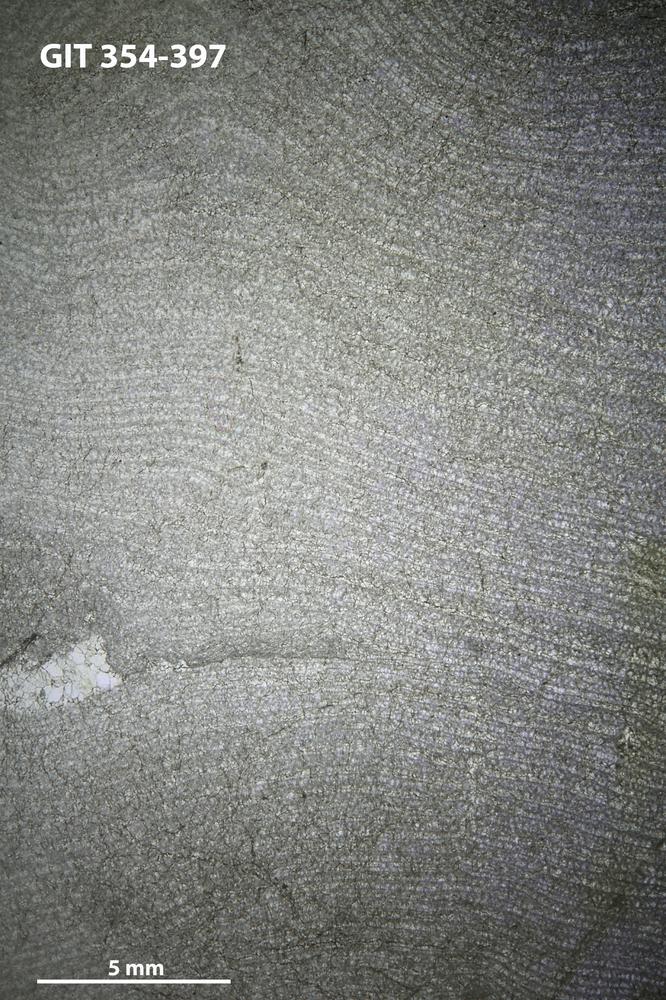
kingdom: Animalia
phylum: Porifera
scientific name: Porifera
